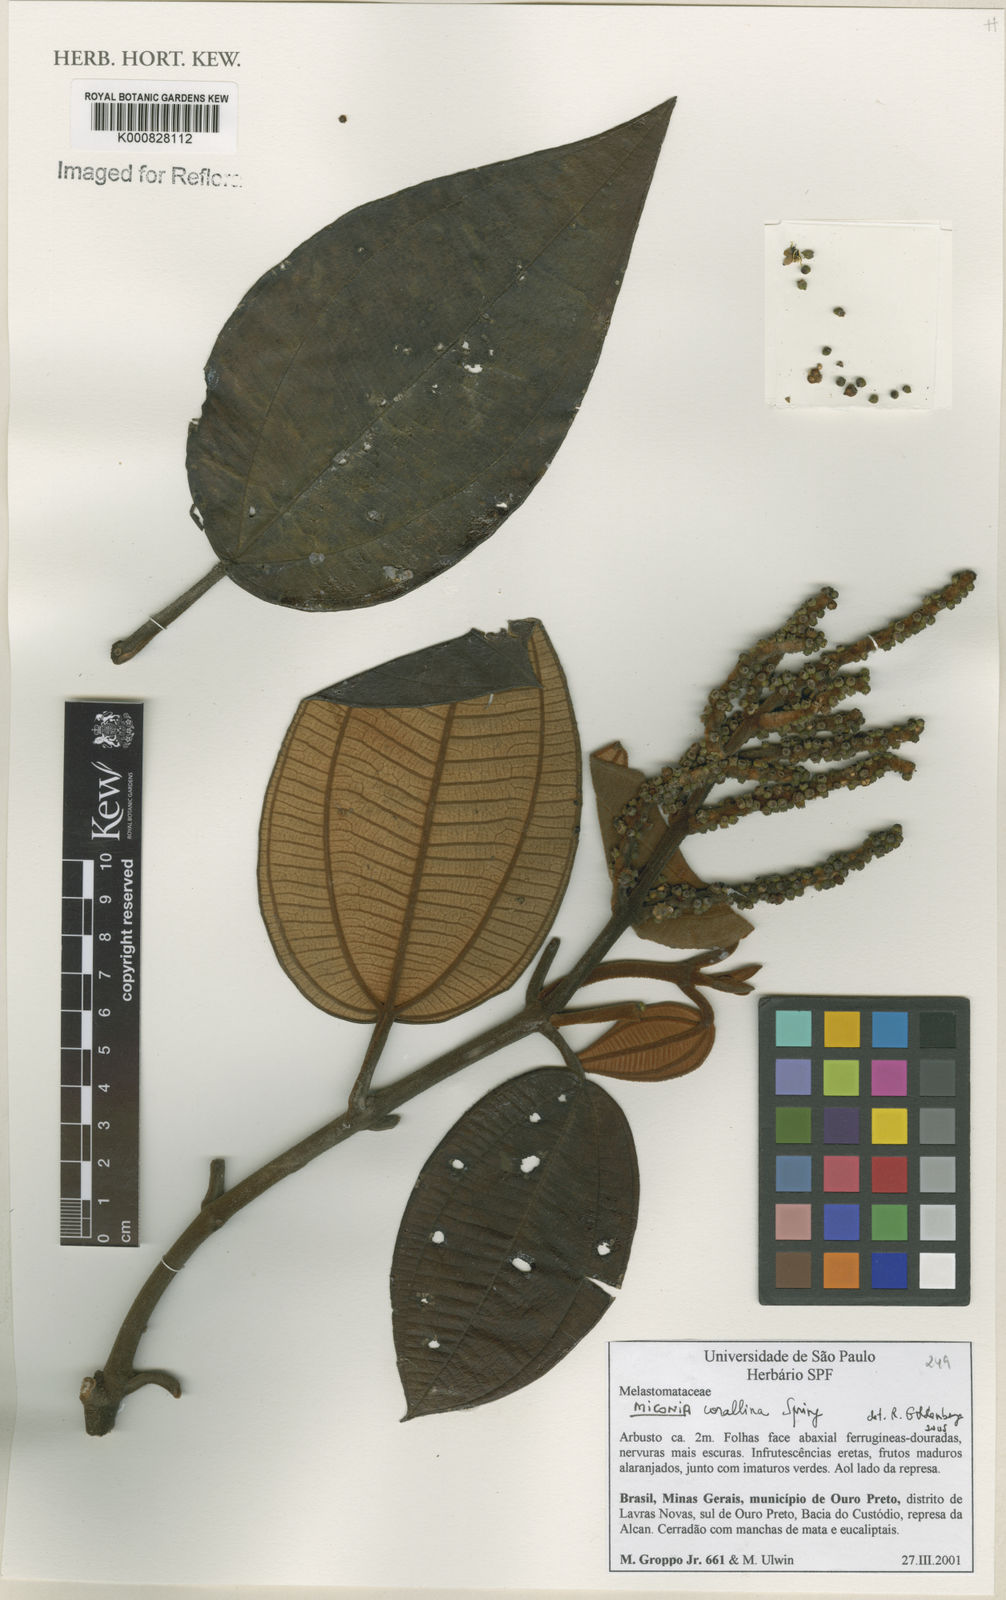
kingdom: Plantae
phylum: Tracheophyta
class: Magnoliopsida
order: Myrtales
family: Melastomataceae
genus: Miconia
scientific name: Miconia
